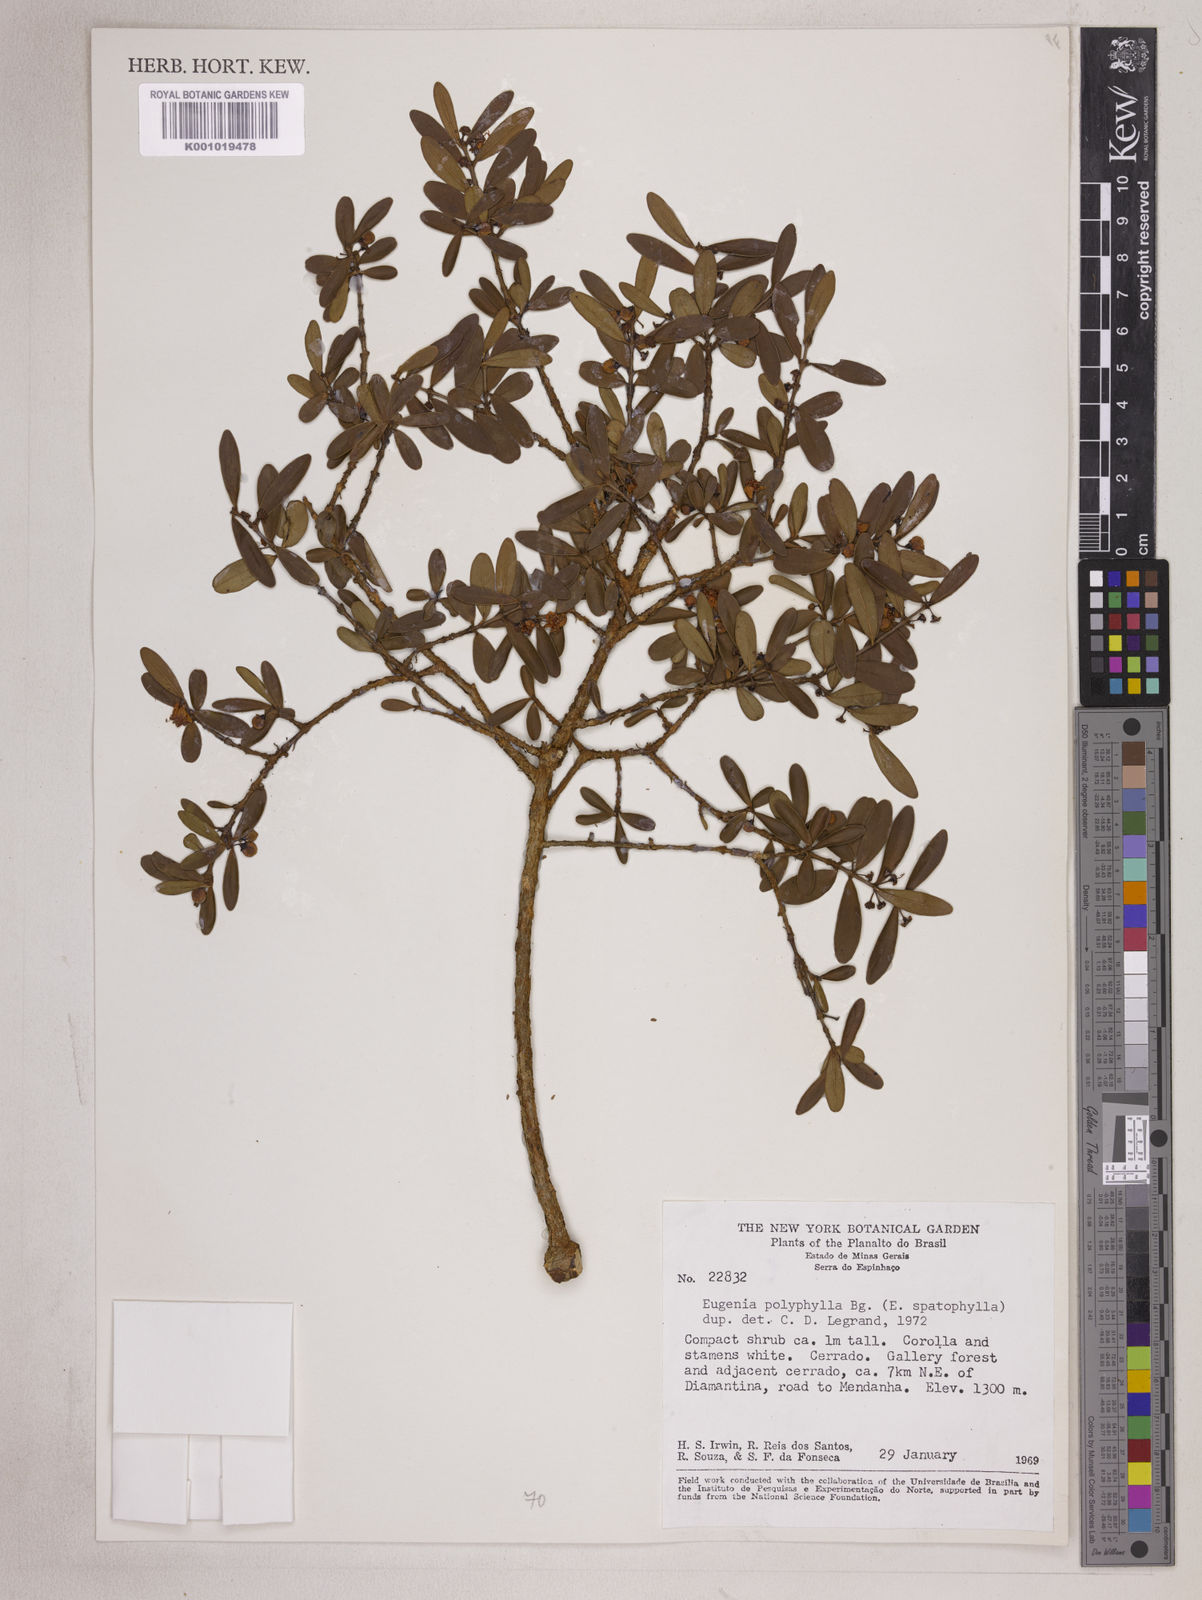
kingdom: Plantae
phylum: Tracheophyta
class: Magnoliopsida
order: Myrtales
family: Myrtaceae
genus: Eugenia
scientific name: Eugenia punicifolia
